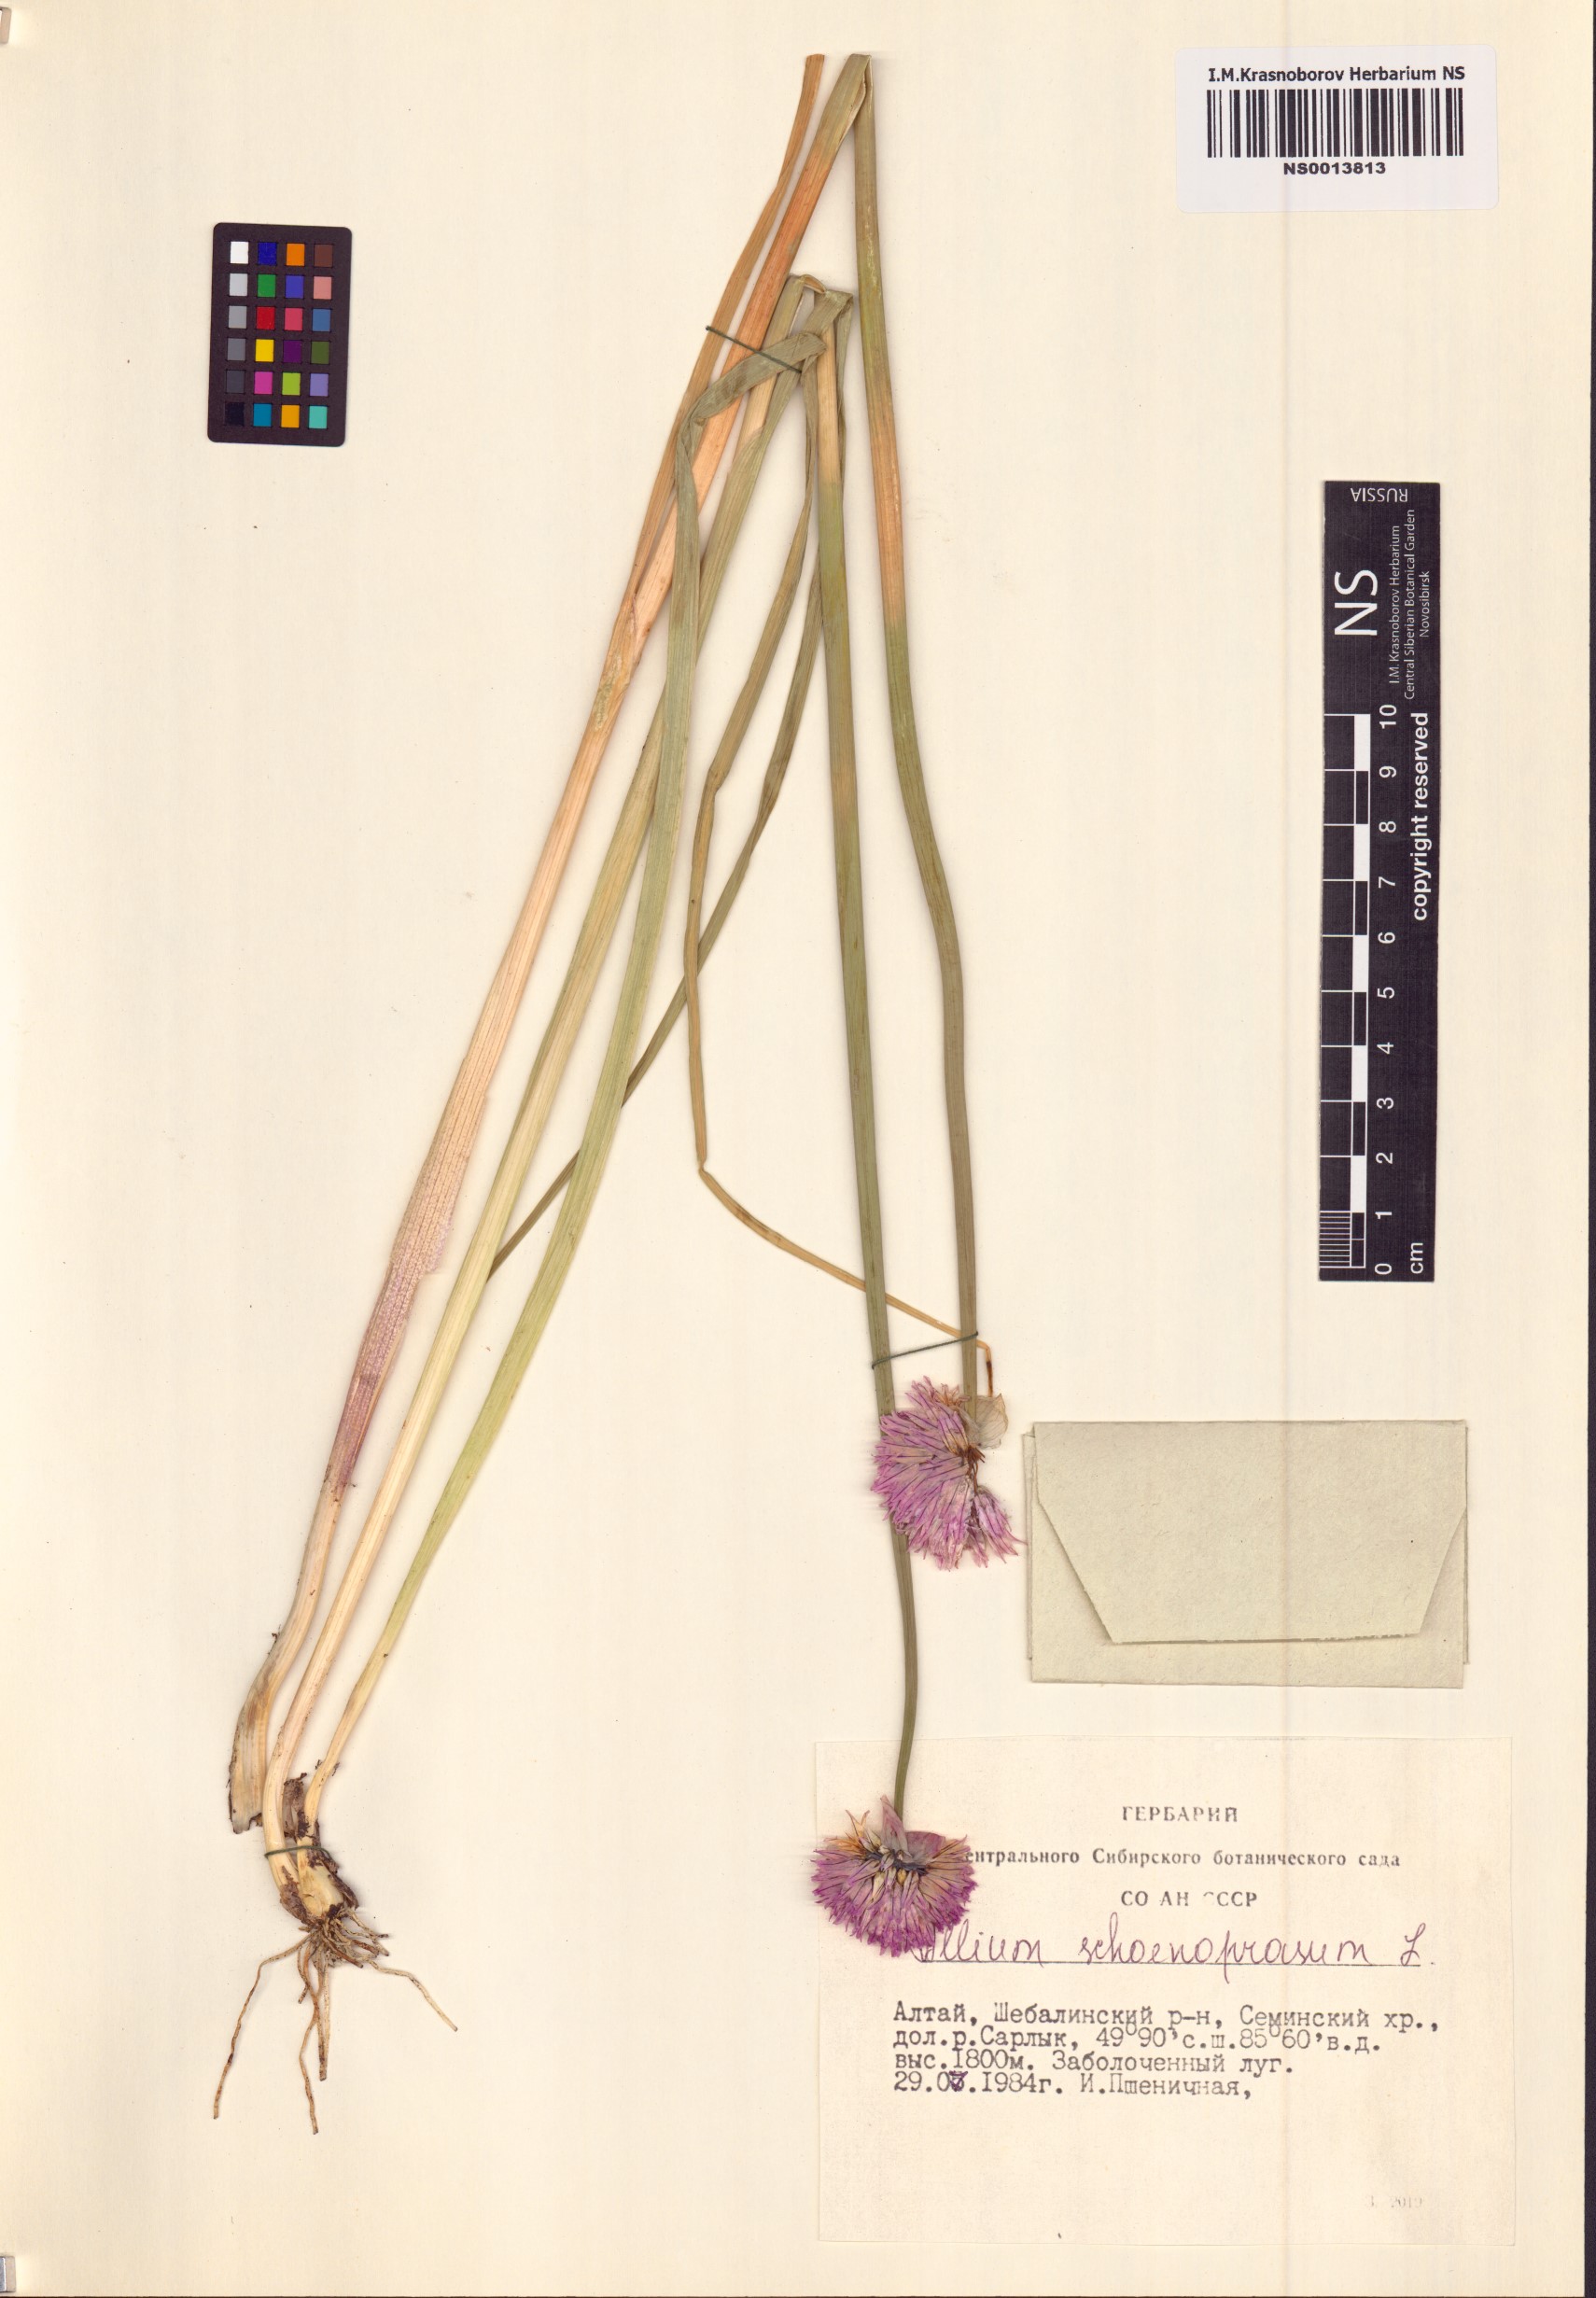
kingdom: Plantae
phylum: Tracheophyta
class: Liliopsida
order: Asparagales
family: Amaryllidaceae
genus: Allium
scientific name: Allium schoenoprasum
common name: Chives
